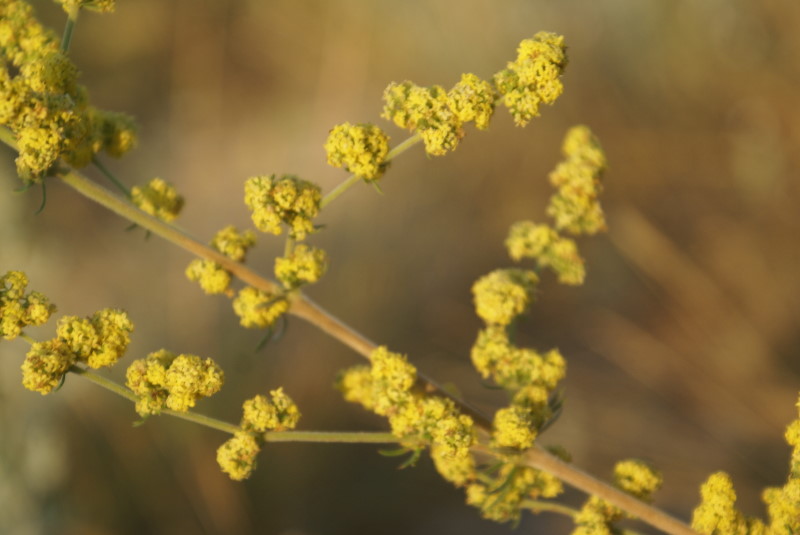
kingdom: Plantae
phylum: Tracheophyta
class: Magnoliopsida
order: Gentianales
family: Rubiaceae
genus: Galium
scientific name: Galium verum
